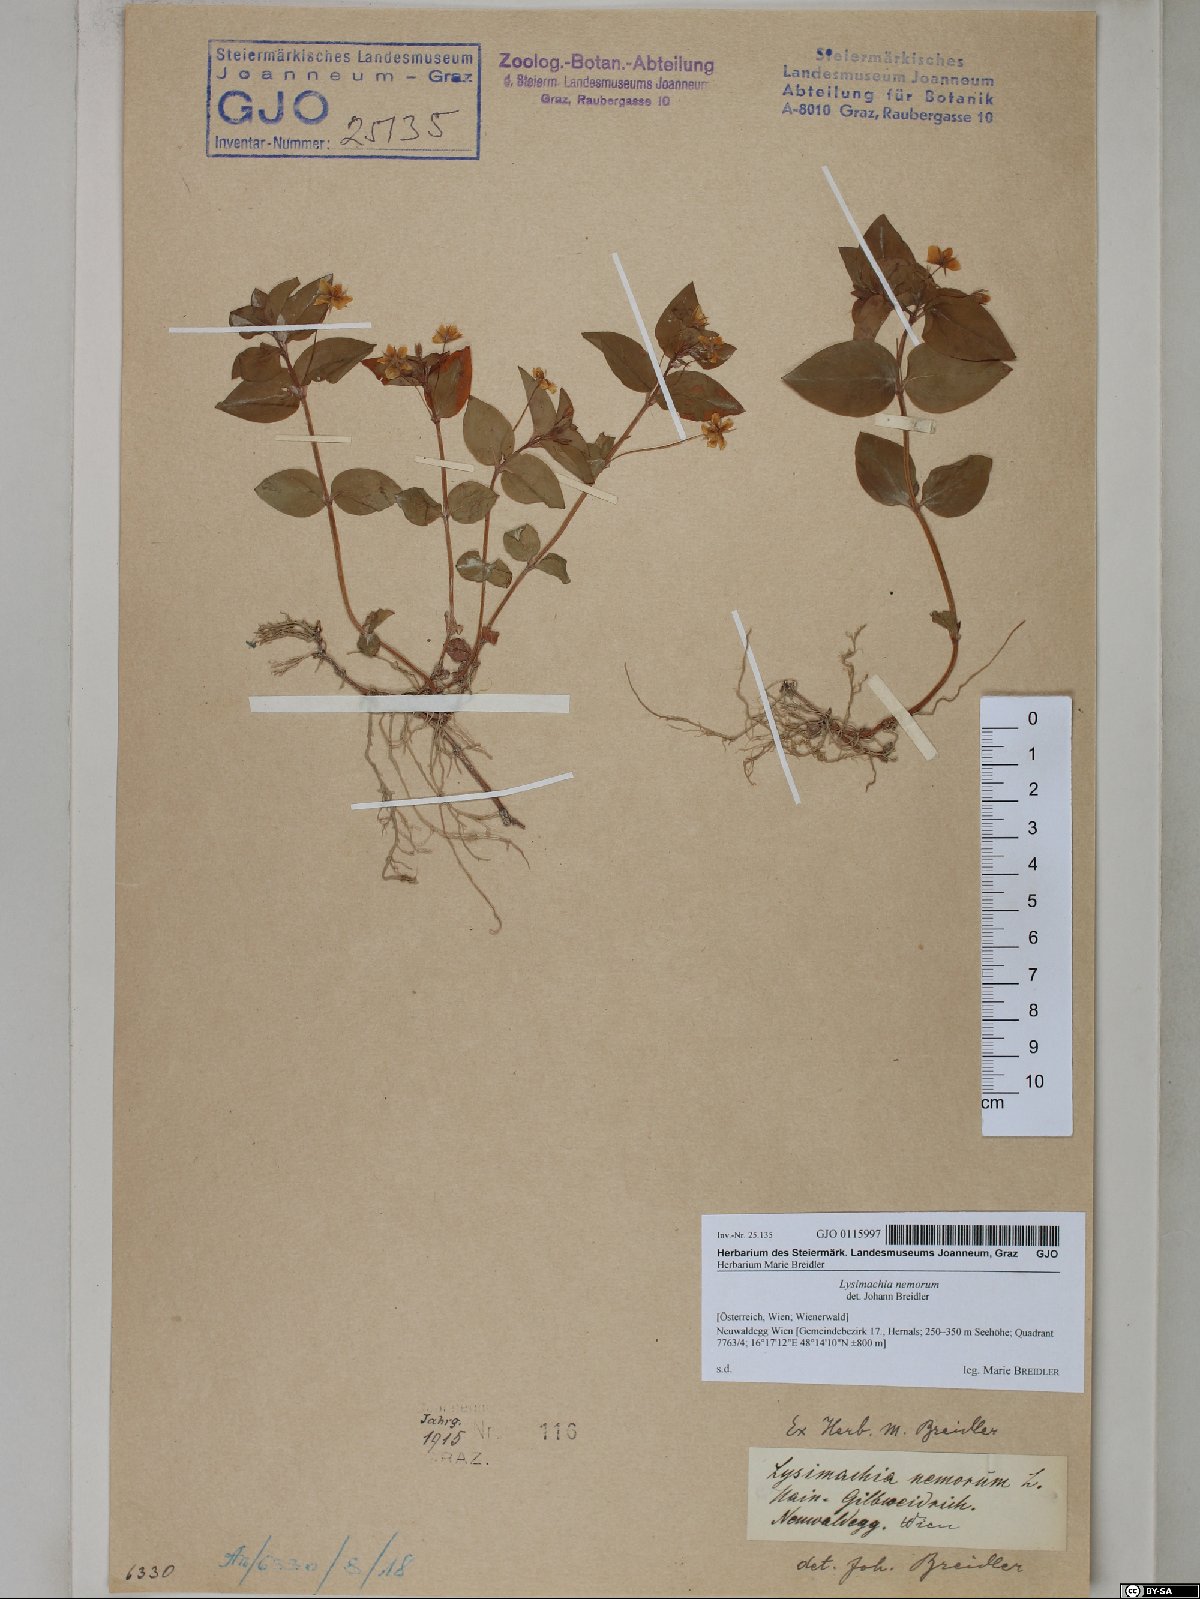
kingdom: Plantae
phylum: Tracheophyta
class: Magnoliopsida
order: Ericales
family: Primulaceae
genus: Lysimachia
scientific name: Lysimachia nemorum
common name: Yellow pimpernel
